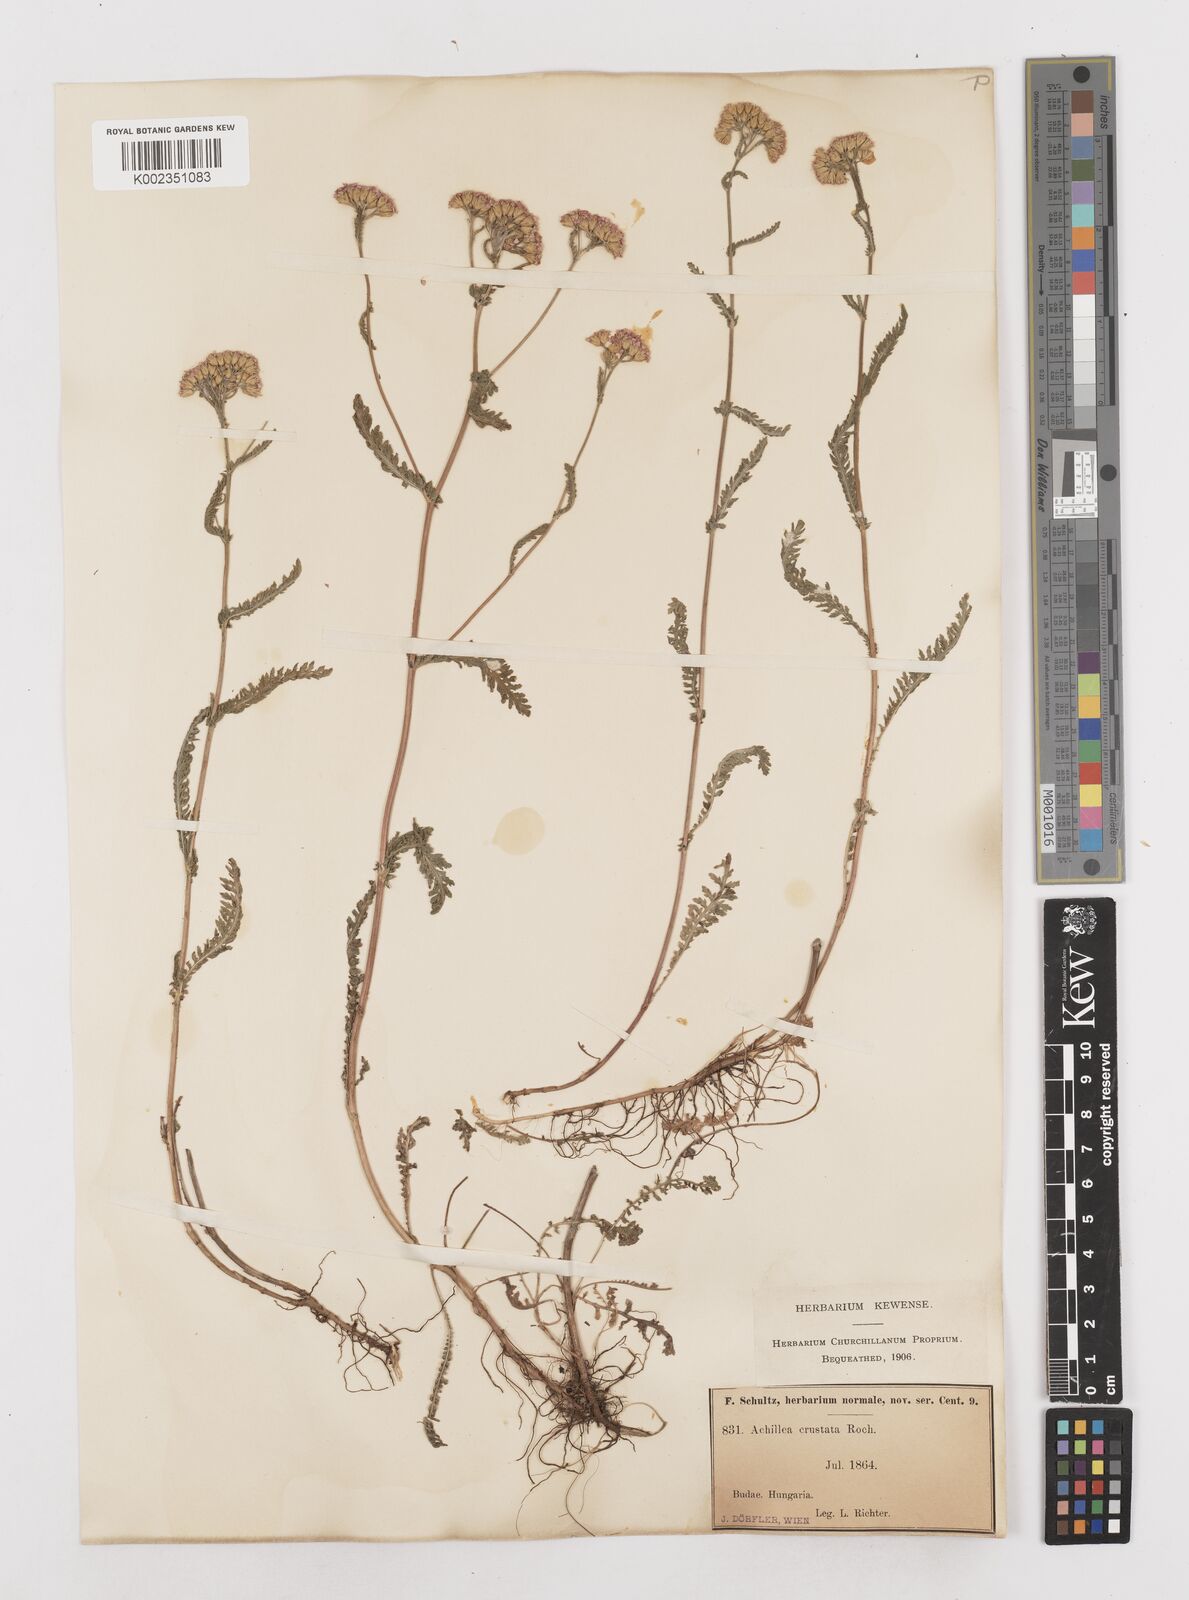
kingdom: Plantae
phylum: Tracheophyta
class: Magnoliopsida
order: Asterales
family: Asteraceae
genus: Achillea
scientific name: Achillea millefolium
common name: Yarrow
